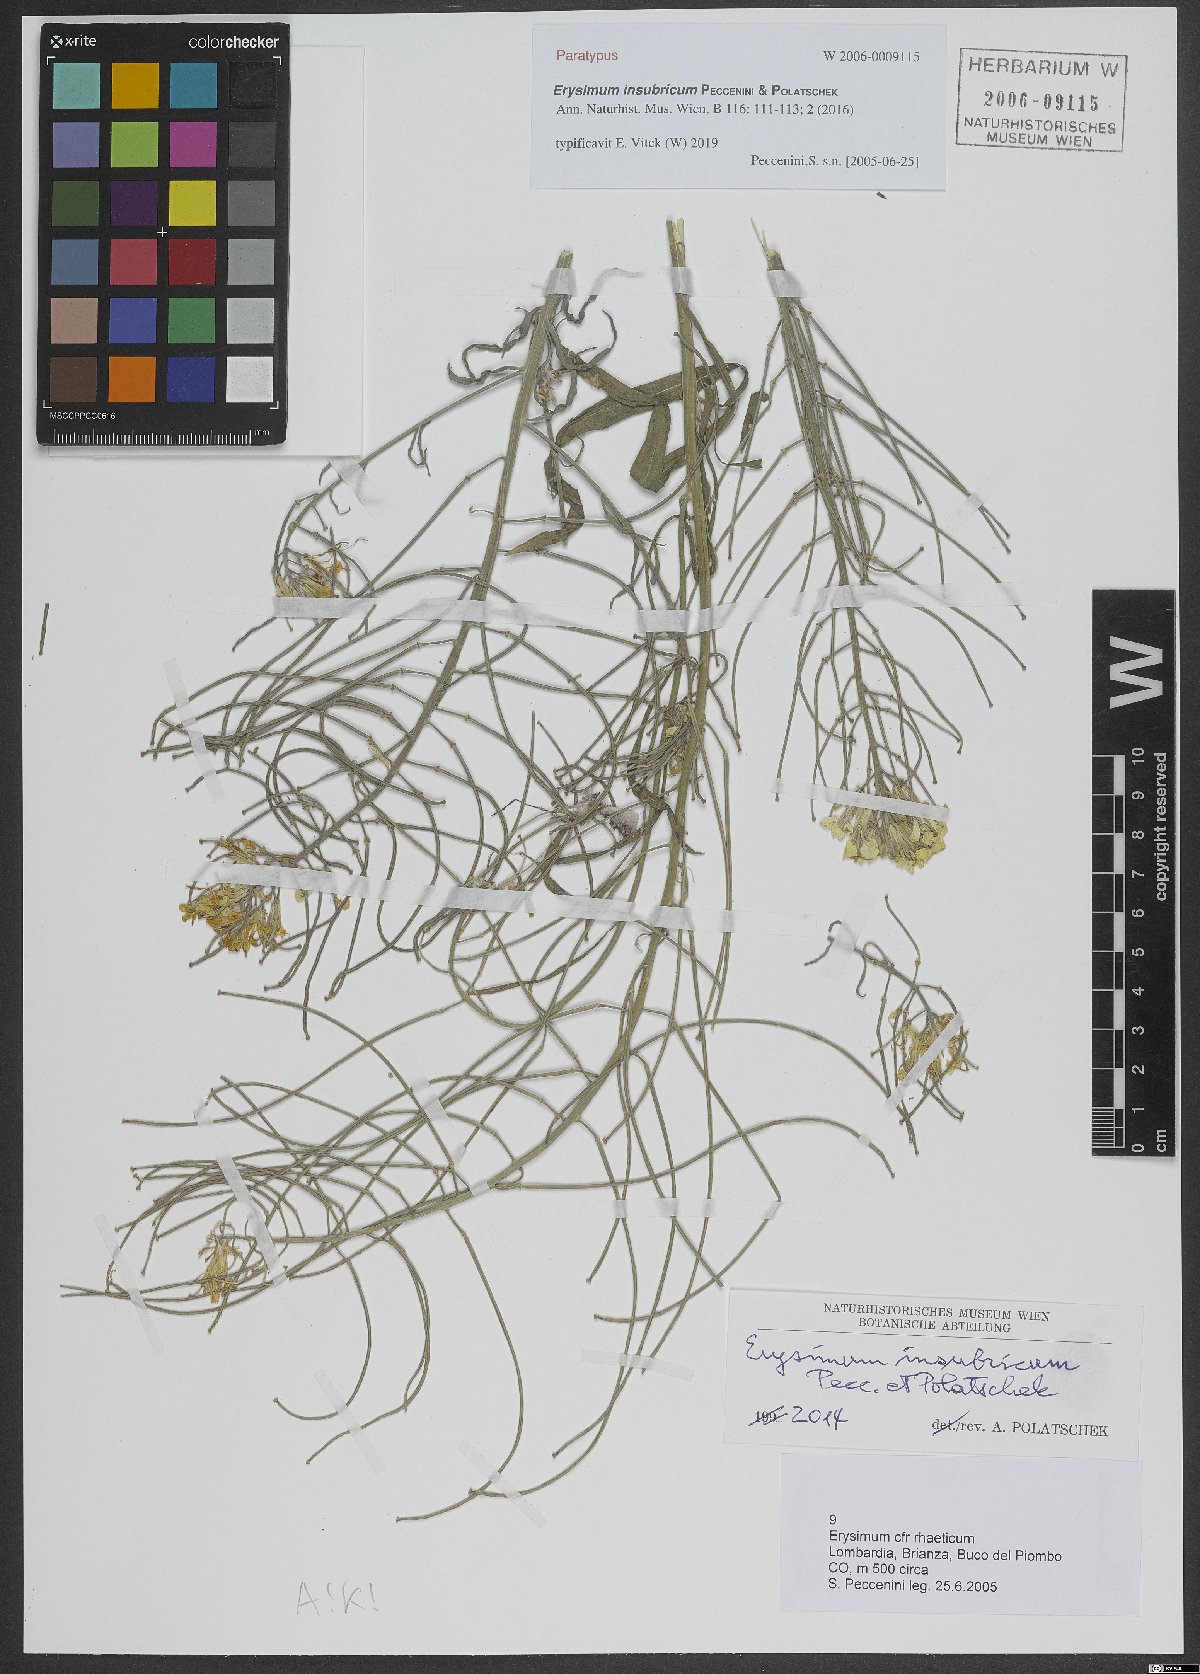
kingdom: Plantae
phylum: Tracheophyta
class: Magnoliopsida
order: Brassicales
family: Brassicaceae
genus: Erysimum
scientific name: Erysimum insubricum
